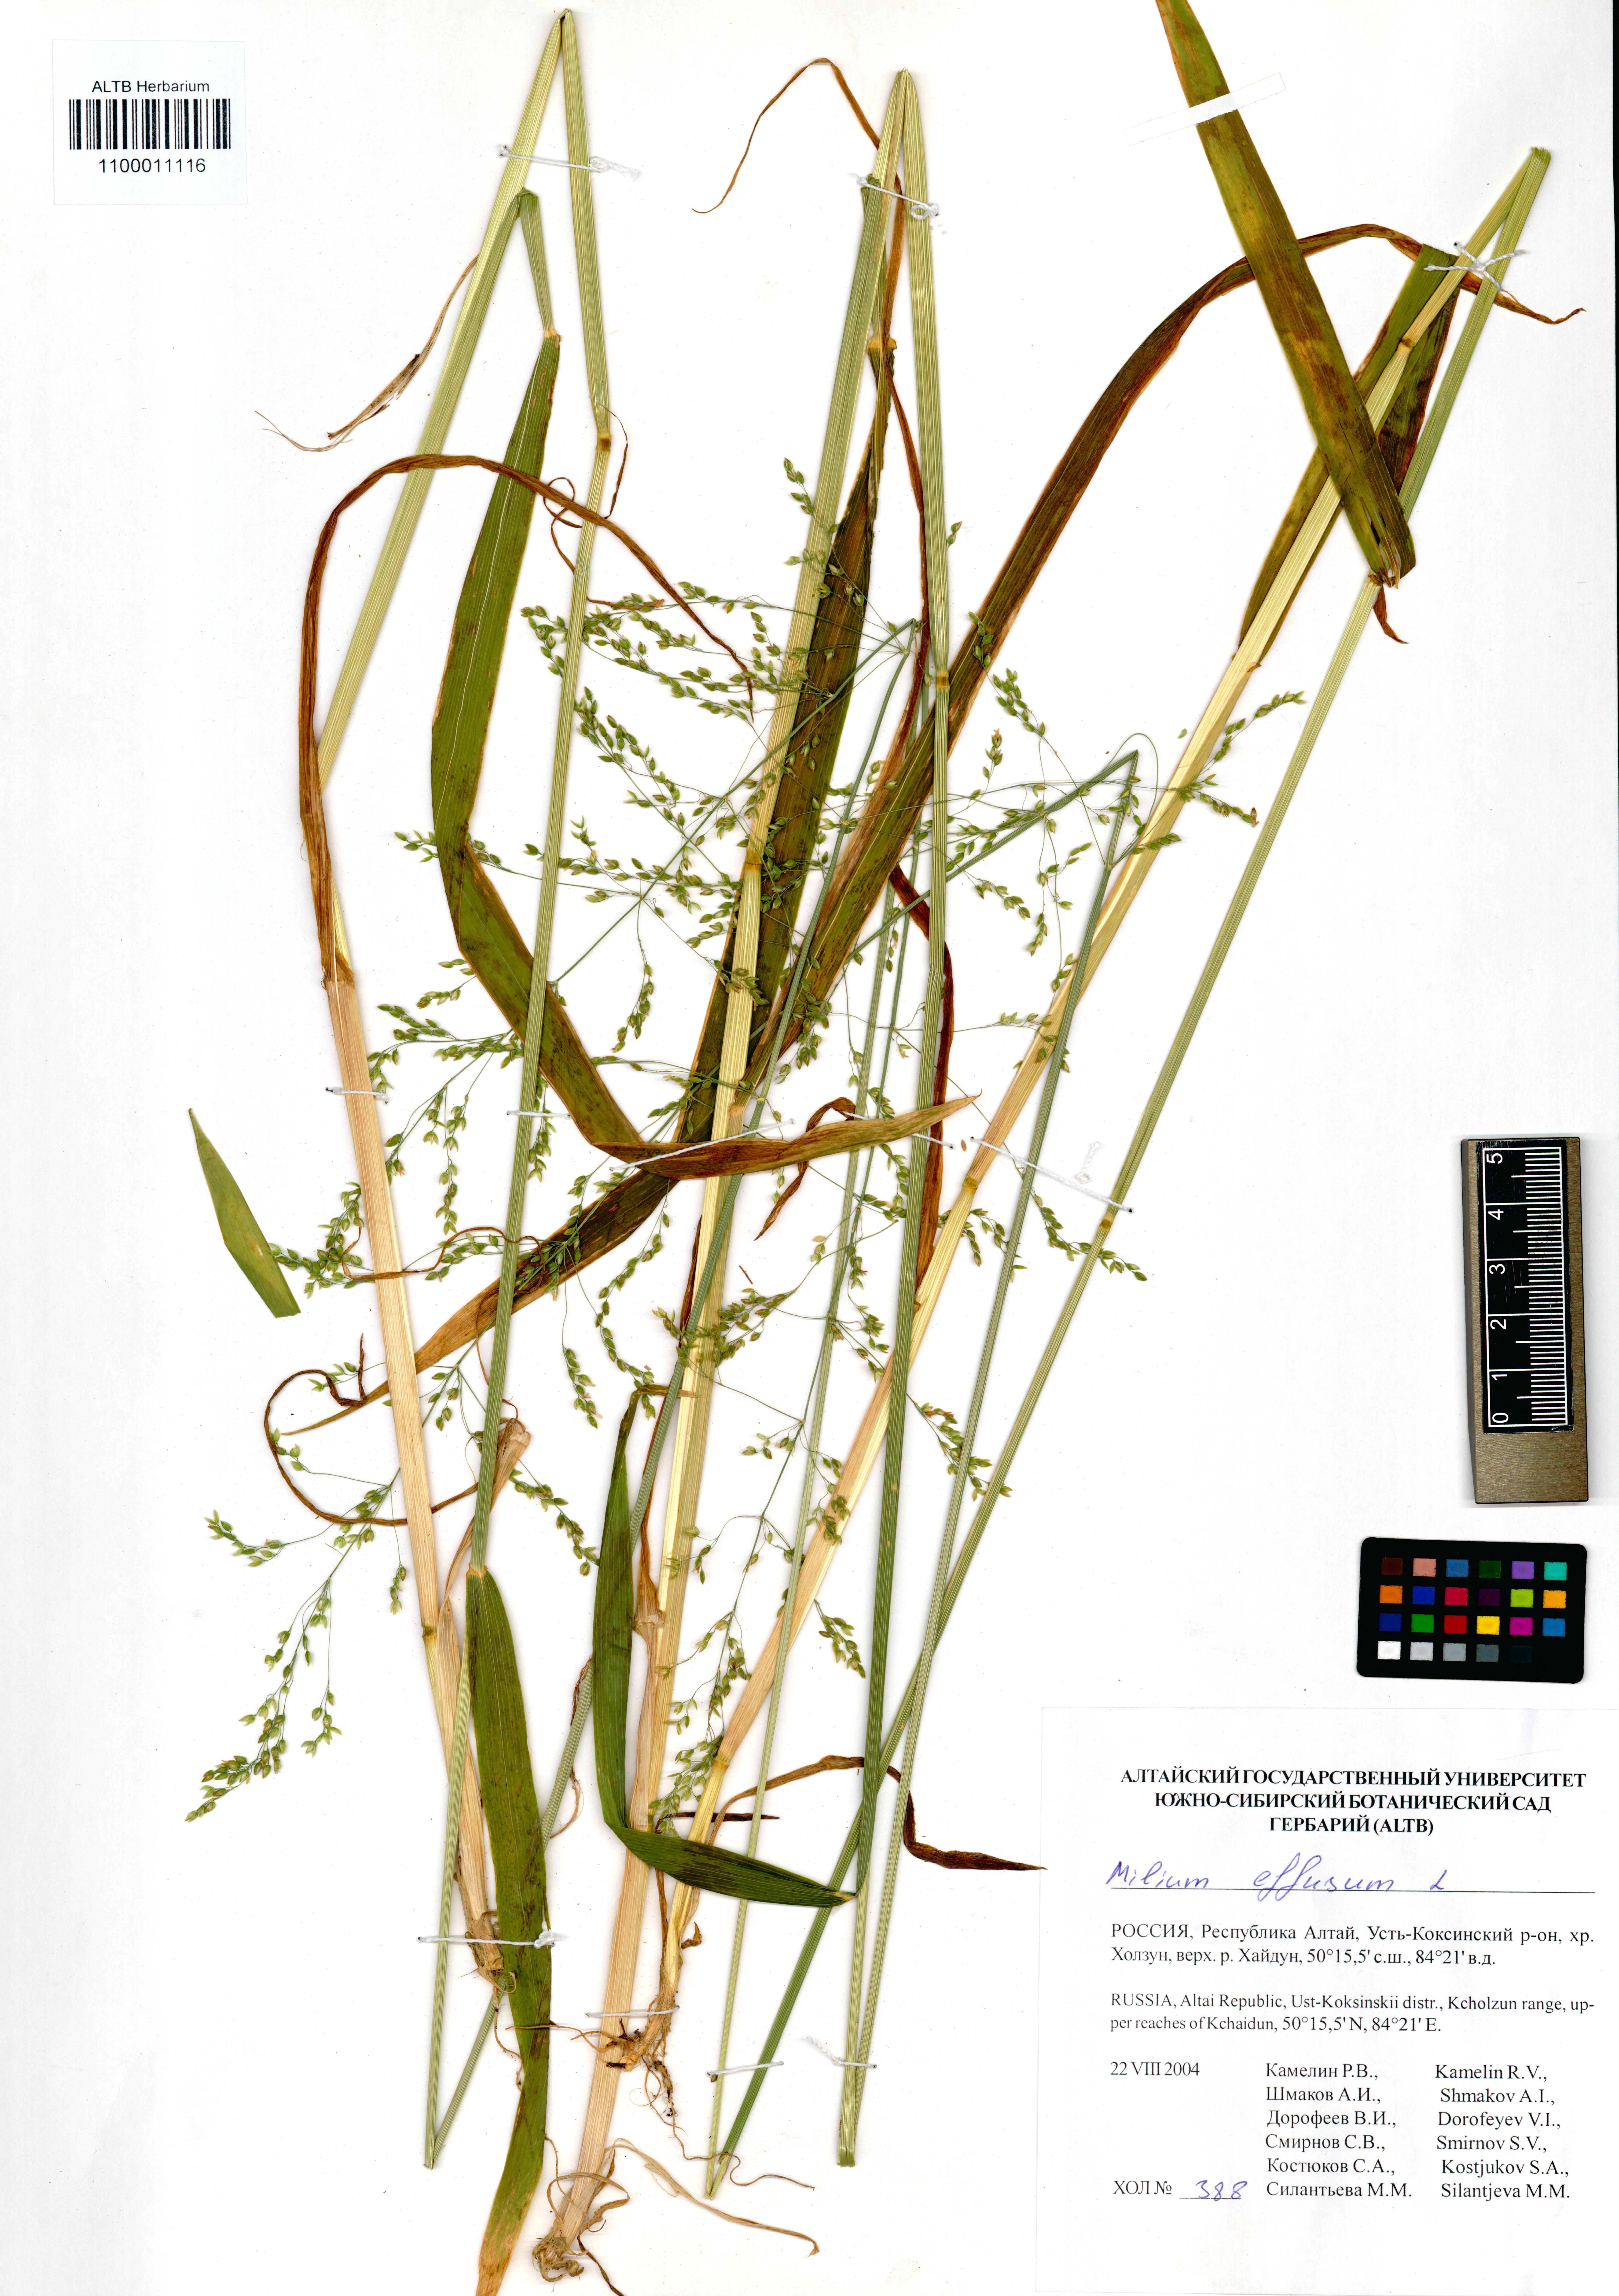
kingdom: Plantae
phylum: Tracheophyta
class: Liliopsida
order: Poales
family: Poaceae
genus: Milium
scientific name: Milium effusum
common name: Wood millet
